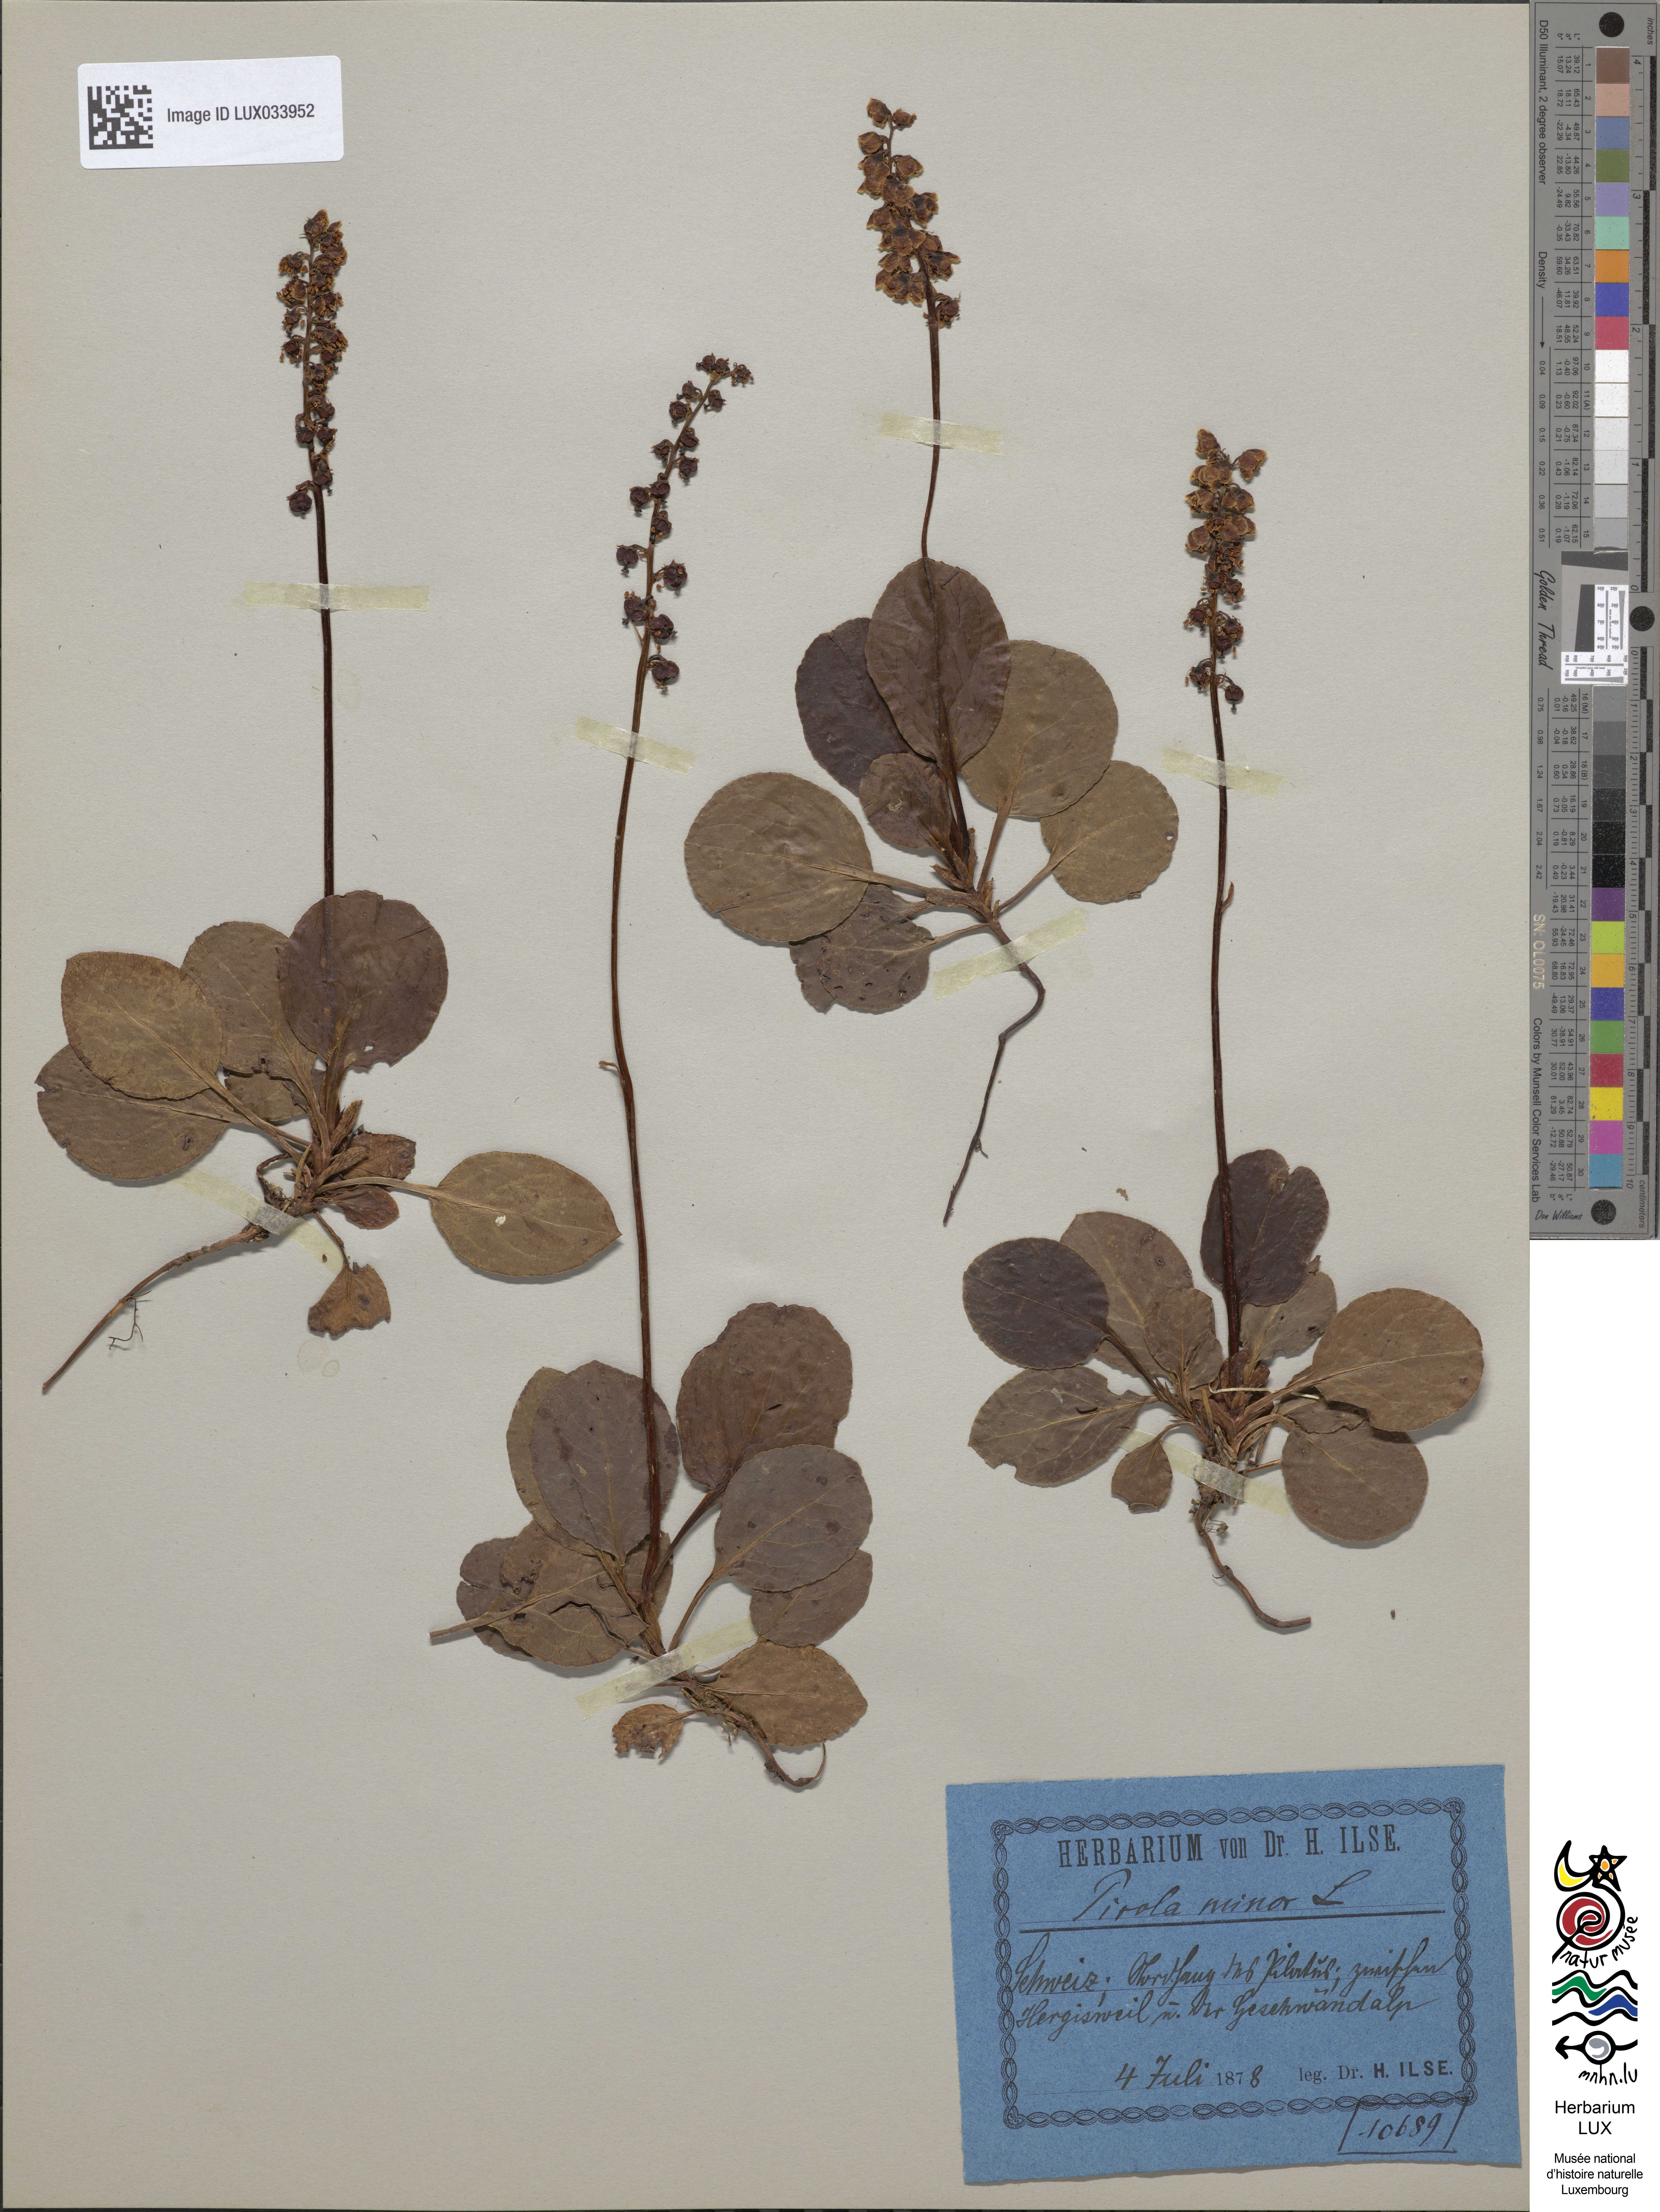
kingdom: Plantae
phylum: Tracheophyta
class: Magnoliopsida
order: Ericales
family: Ericaceae
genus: Pyrola
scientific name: Pyrola minor
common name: Common wintergreen
